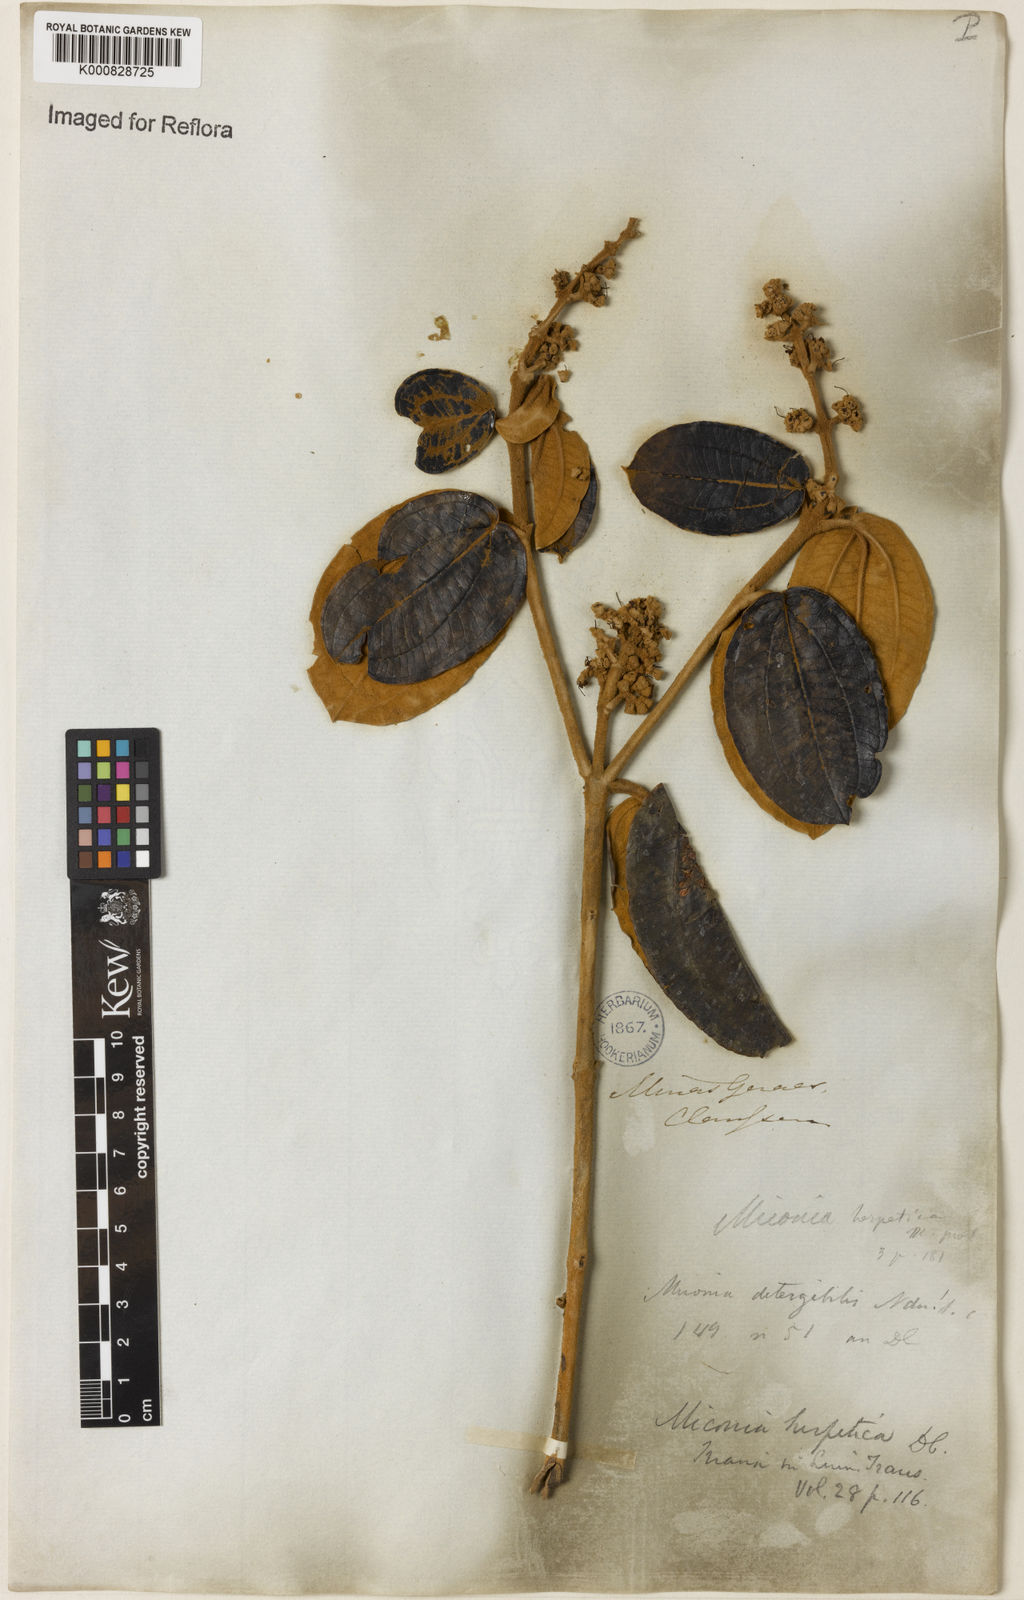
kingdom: Plantae
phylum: Tracheophyta
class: Magnoliopsida
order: Myrtales
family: Melastomataceae
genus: Miconia
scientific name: Miconia herpetica
